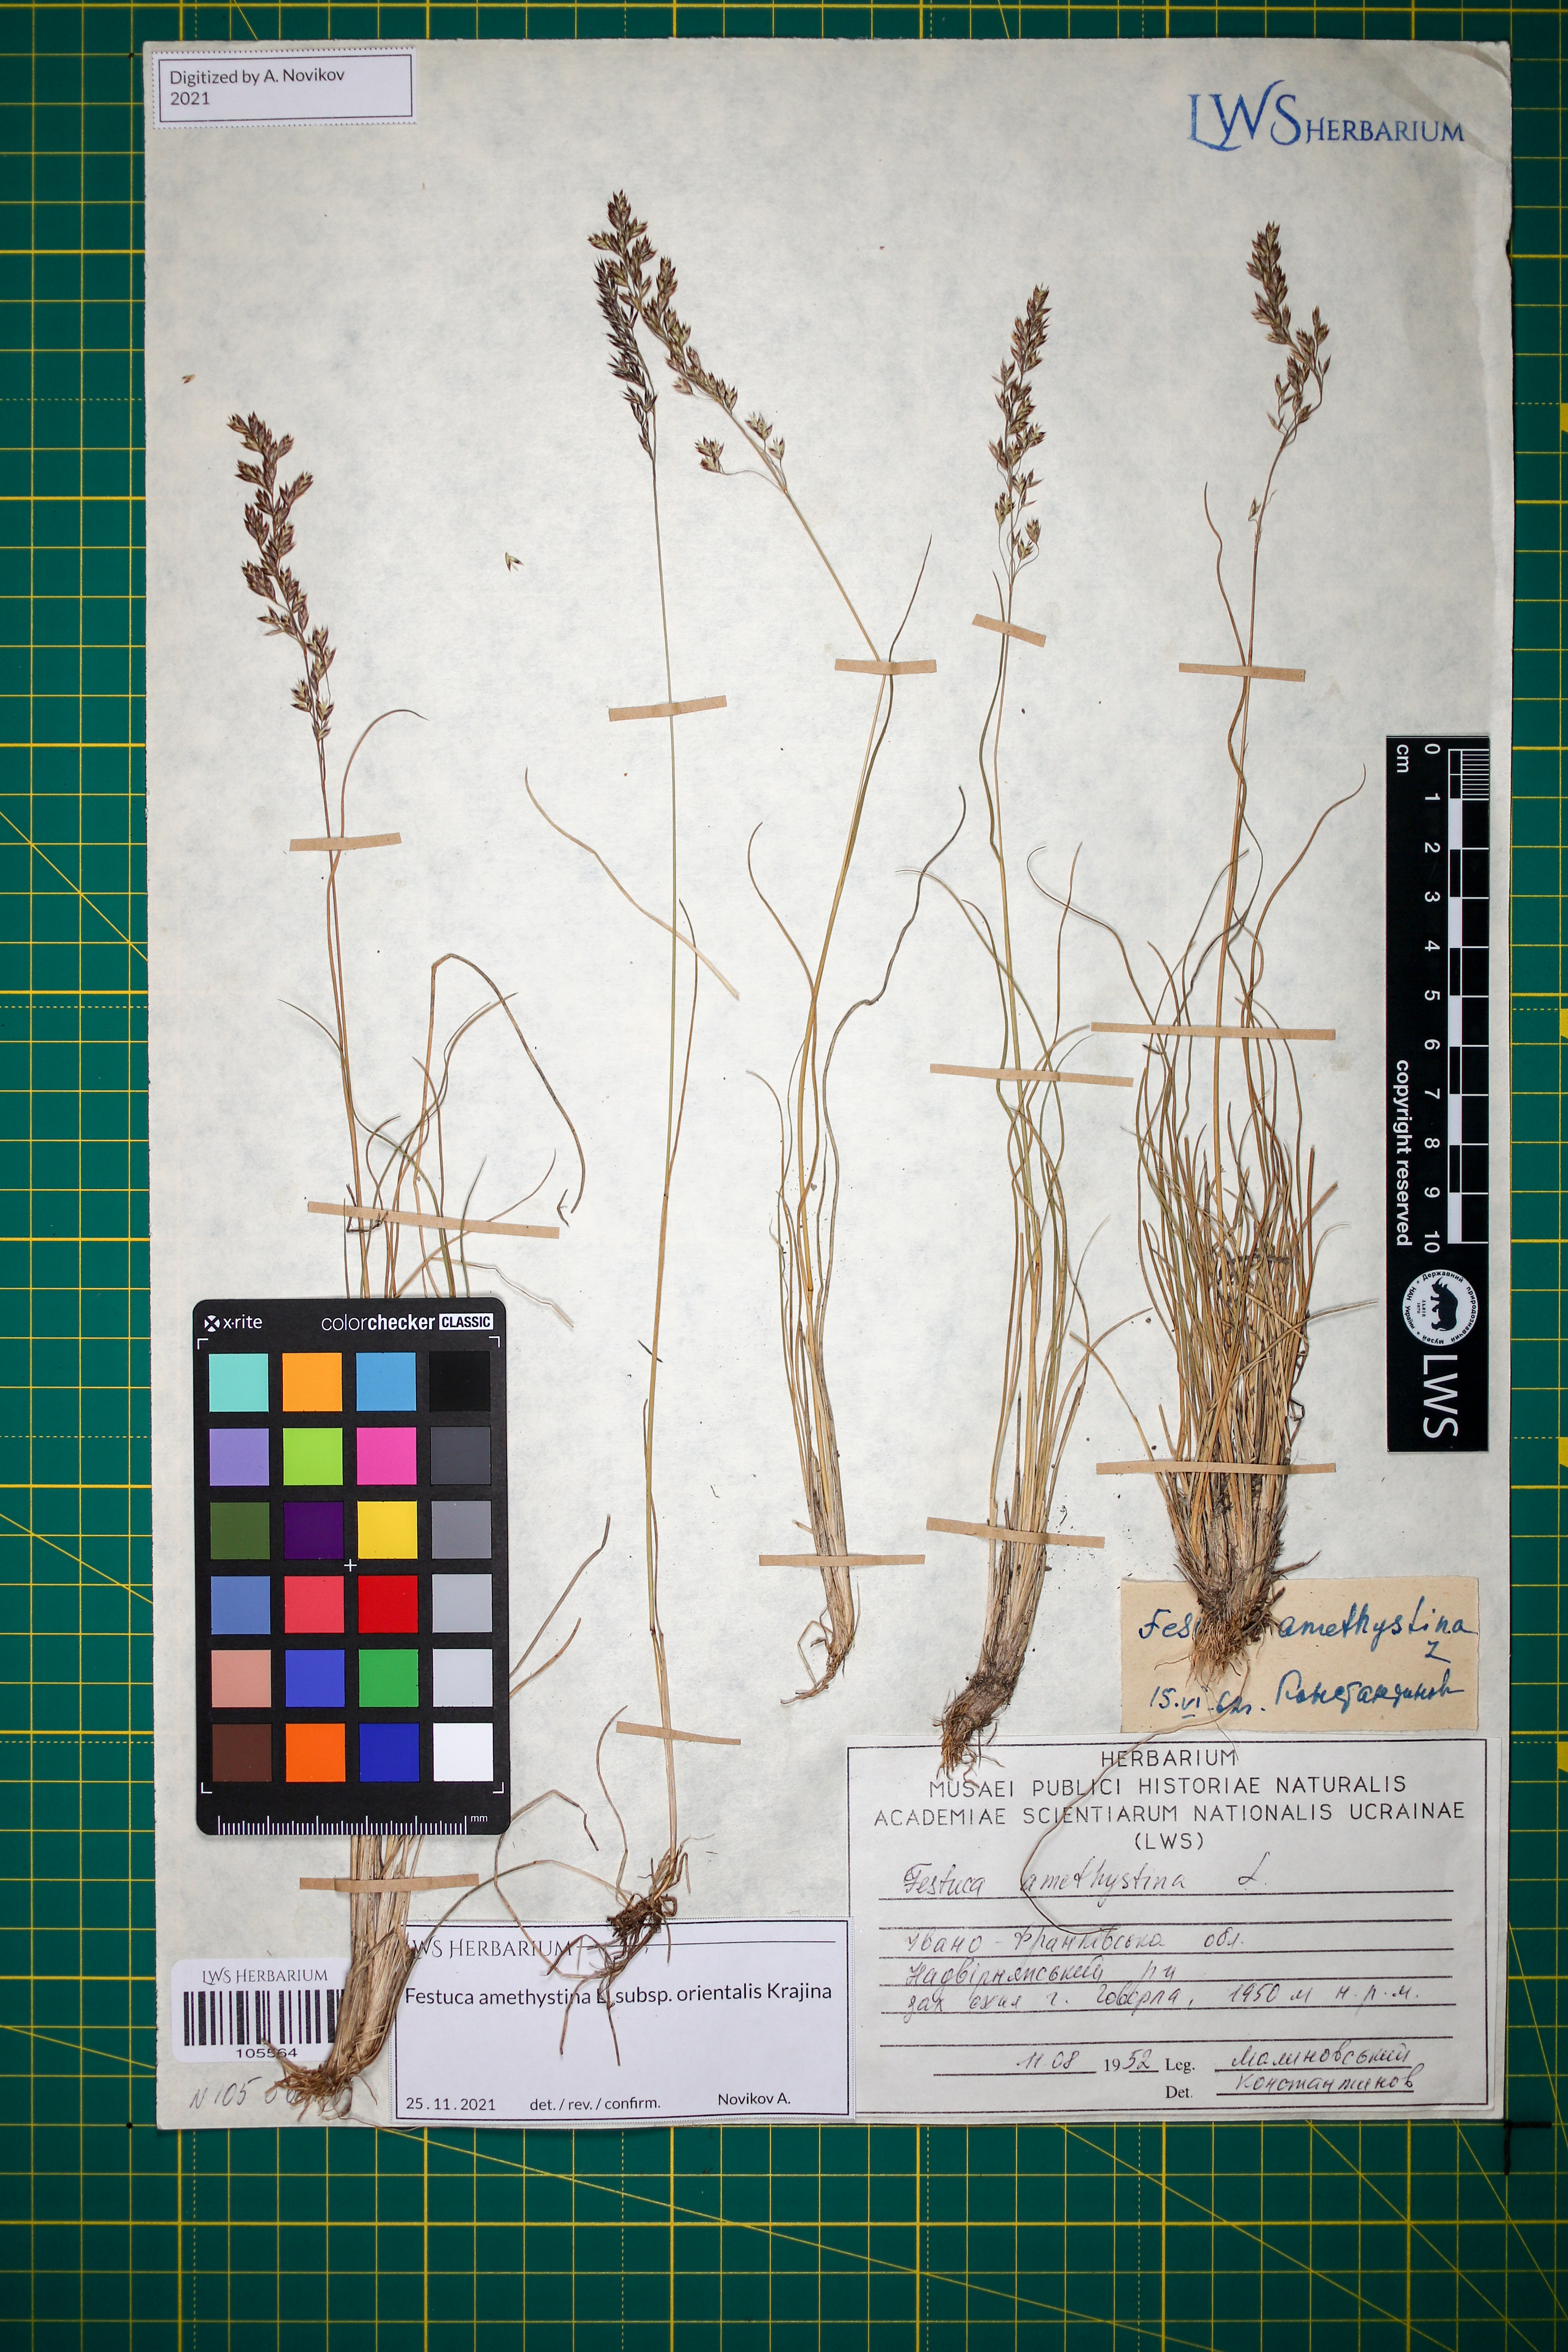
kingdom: Plantae
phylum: Tracheophyta
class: Liliopsida
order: Poales
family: Poaceae
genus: Festuca
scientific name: Festuca amethystina
